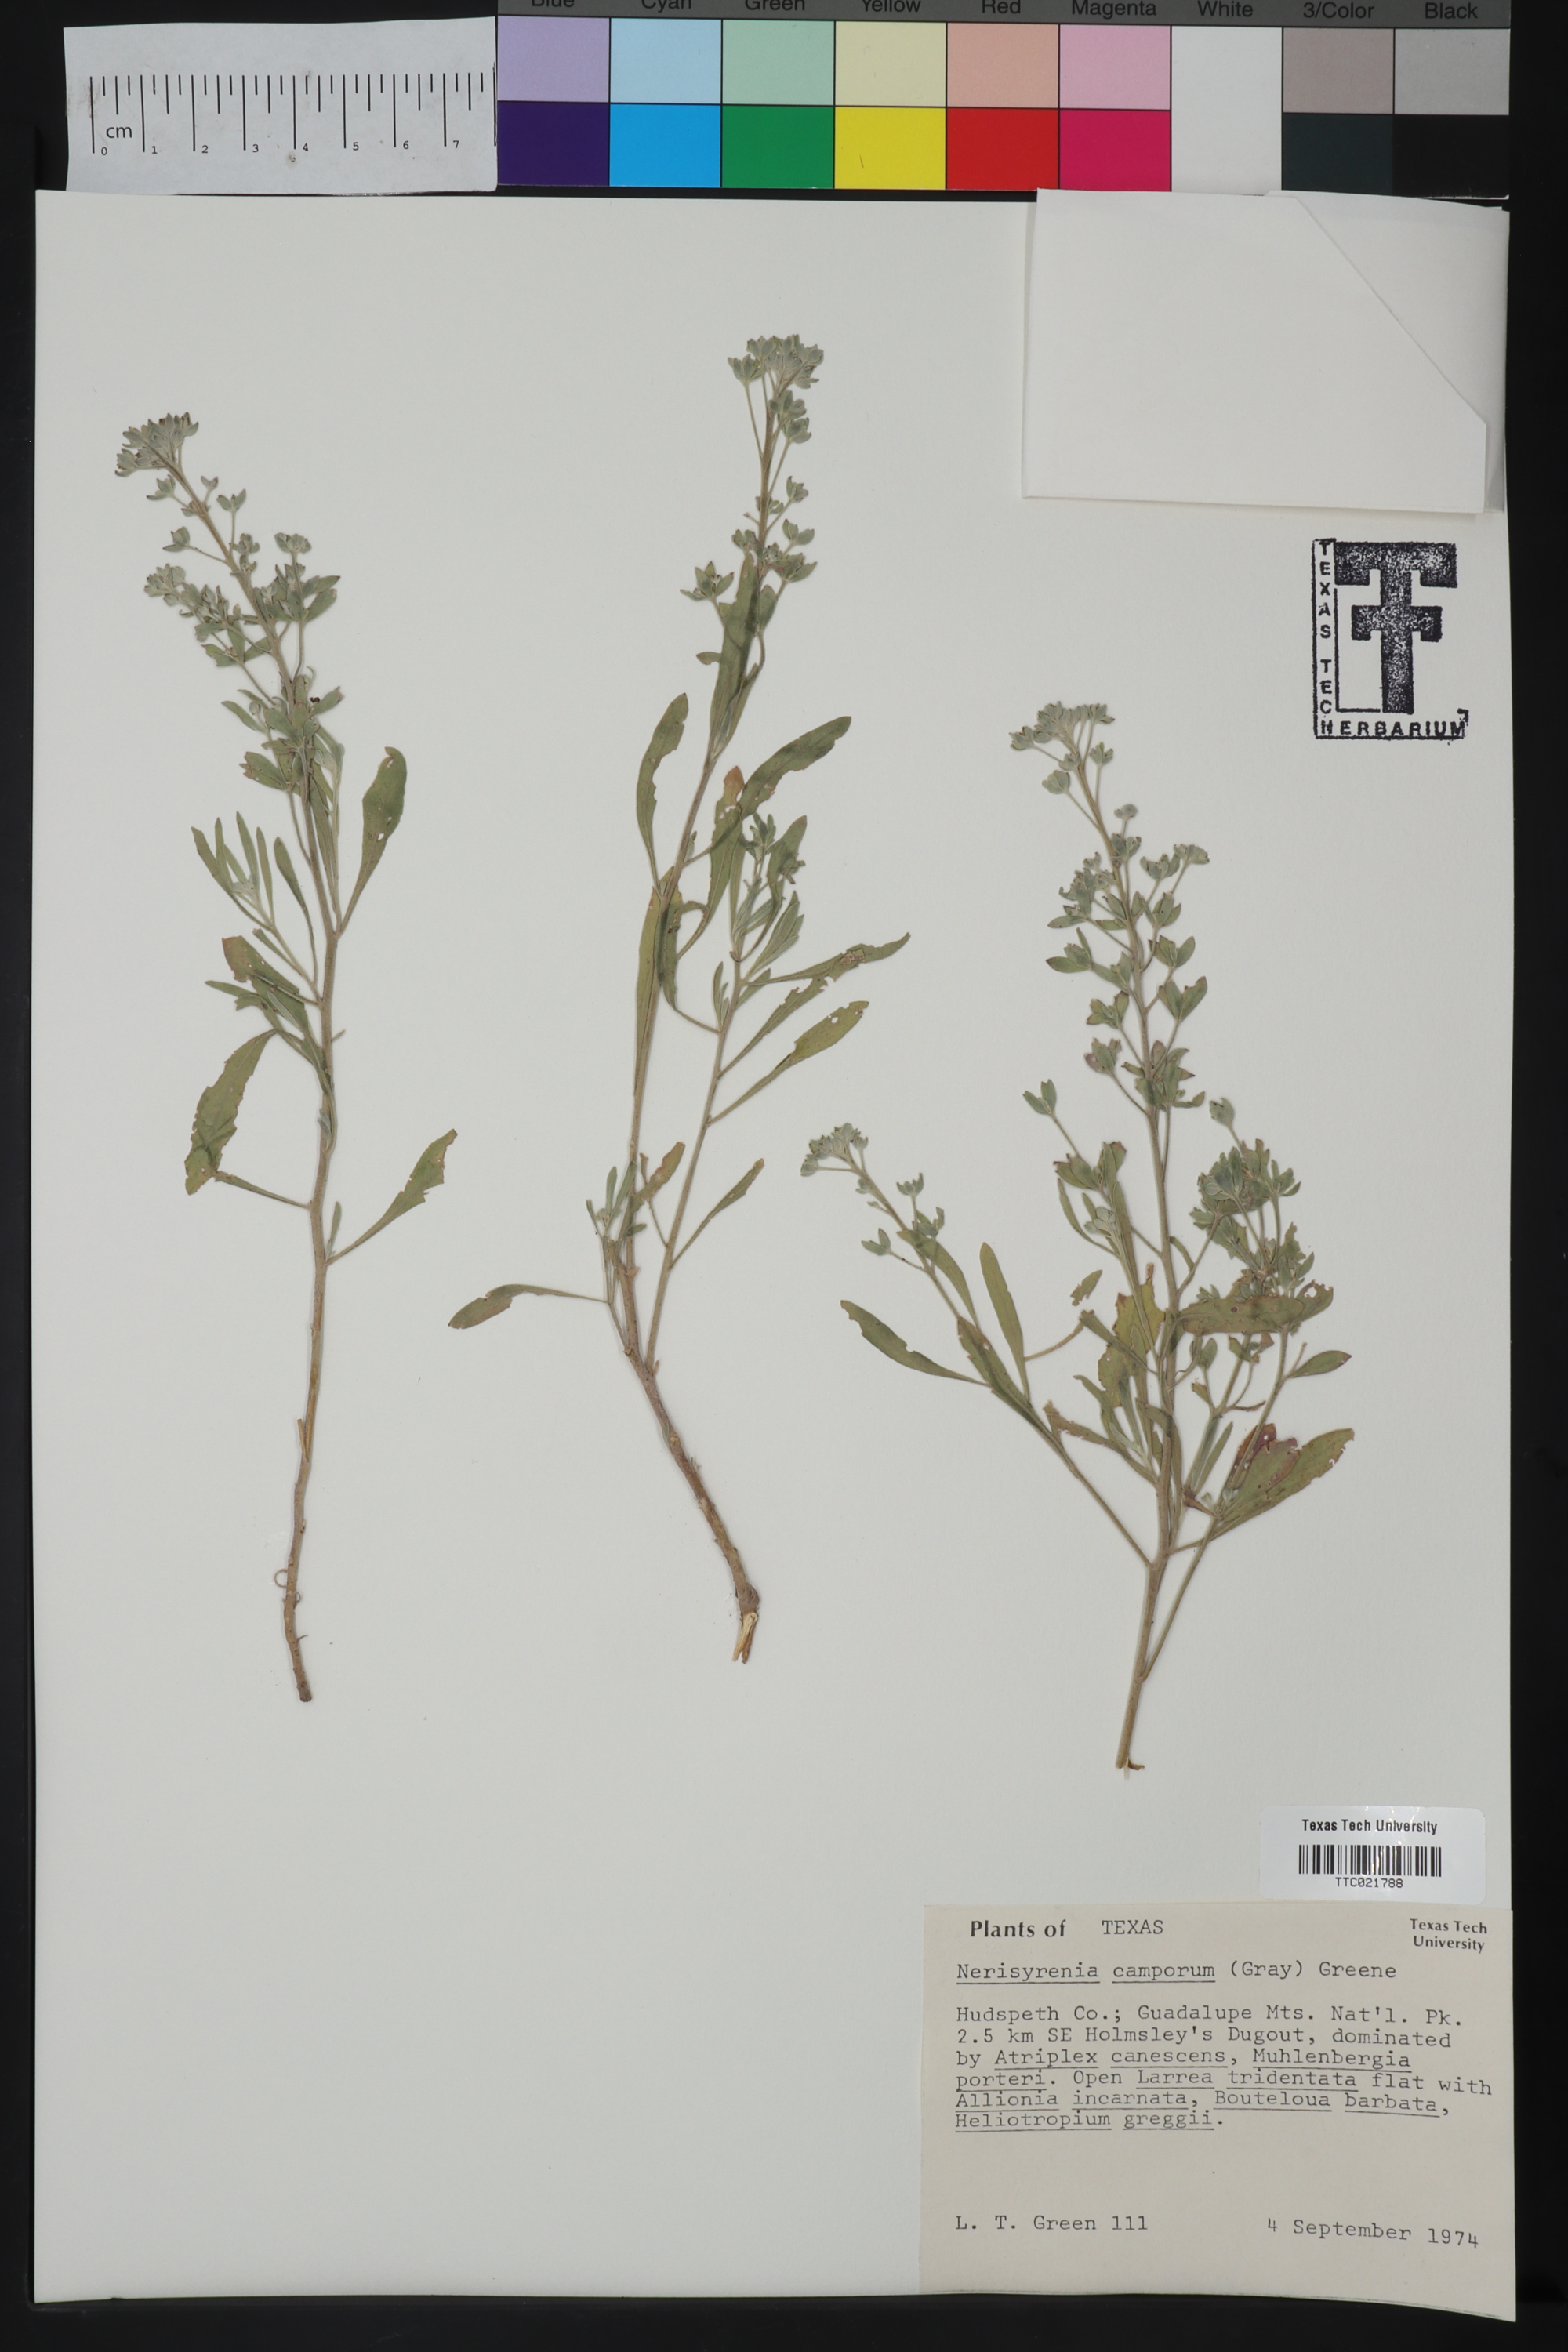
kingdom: Plantae
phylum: Tracheophyta
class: Magnoliopsida
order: Brassicales
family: Brassicaceae
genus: Nerisyrenia
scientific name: Nerisyrenia camporum
